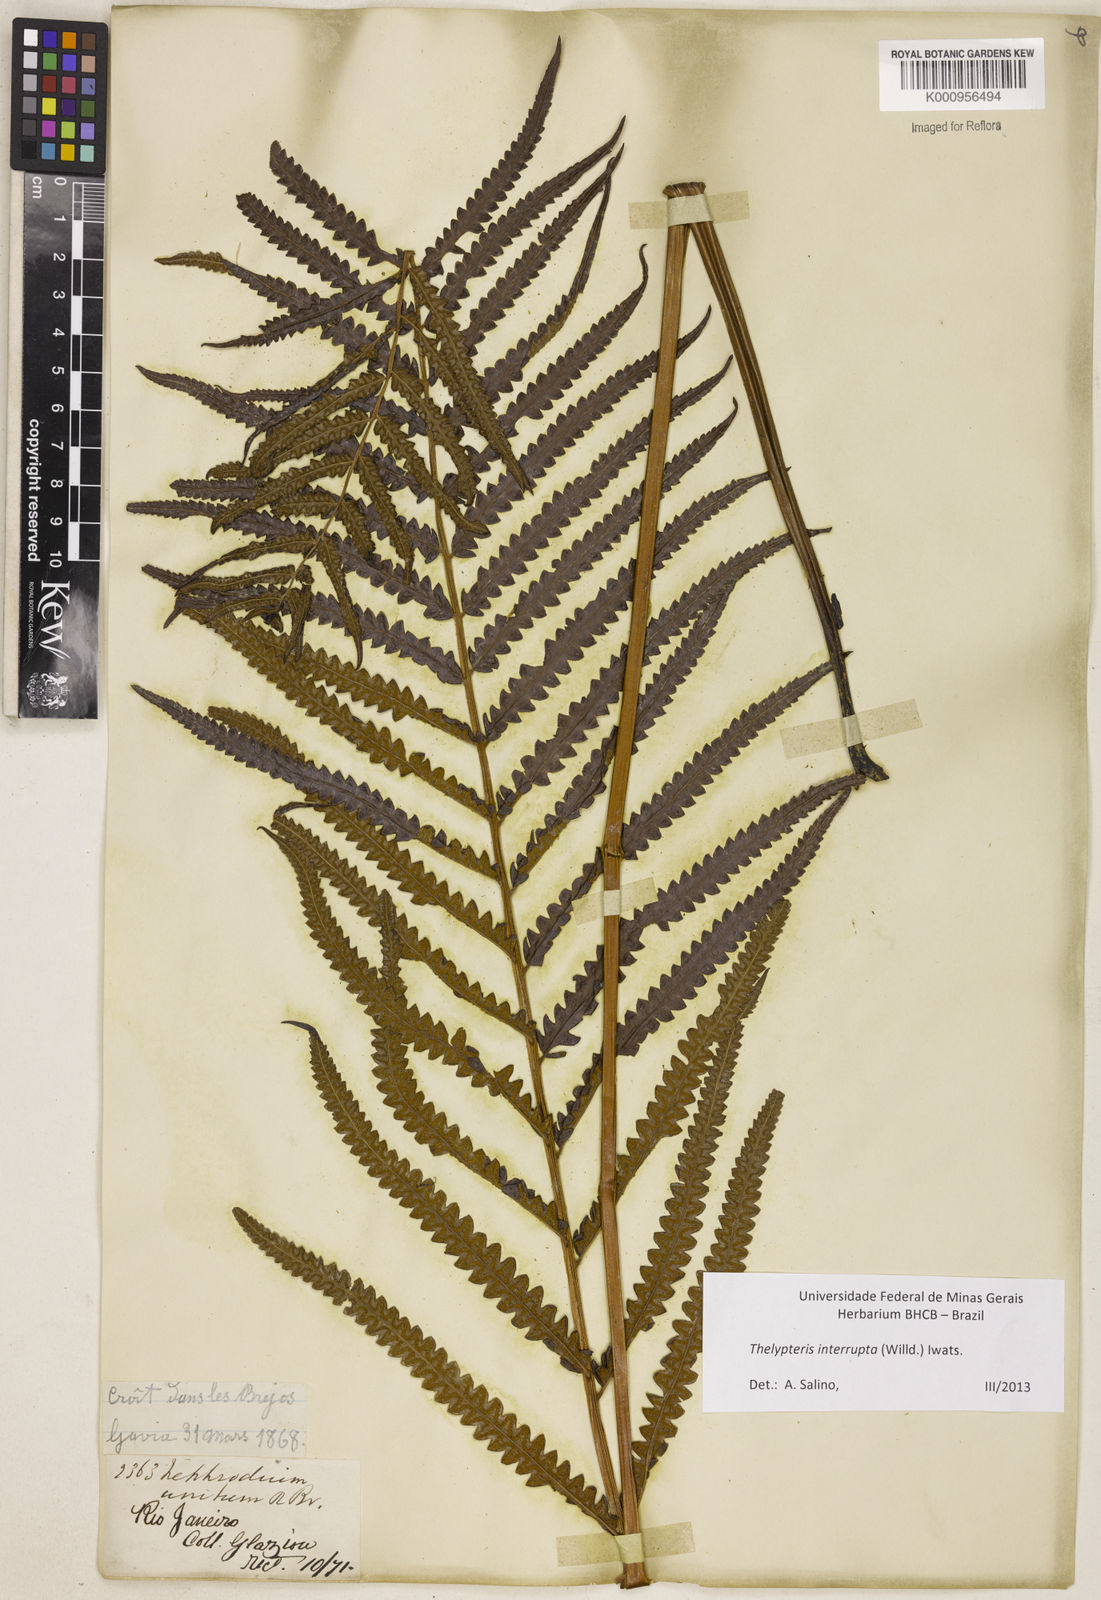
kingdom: Plantae
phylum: Tracheophyta
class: Polypodiopsida
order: Polypodiales
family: Thelypteridaceae
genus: Cyclosorus
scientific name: Cyclosorus interruptus
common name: Neke fern
